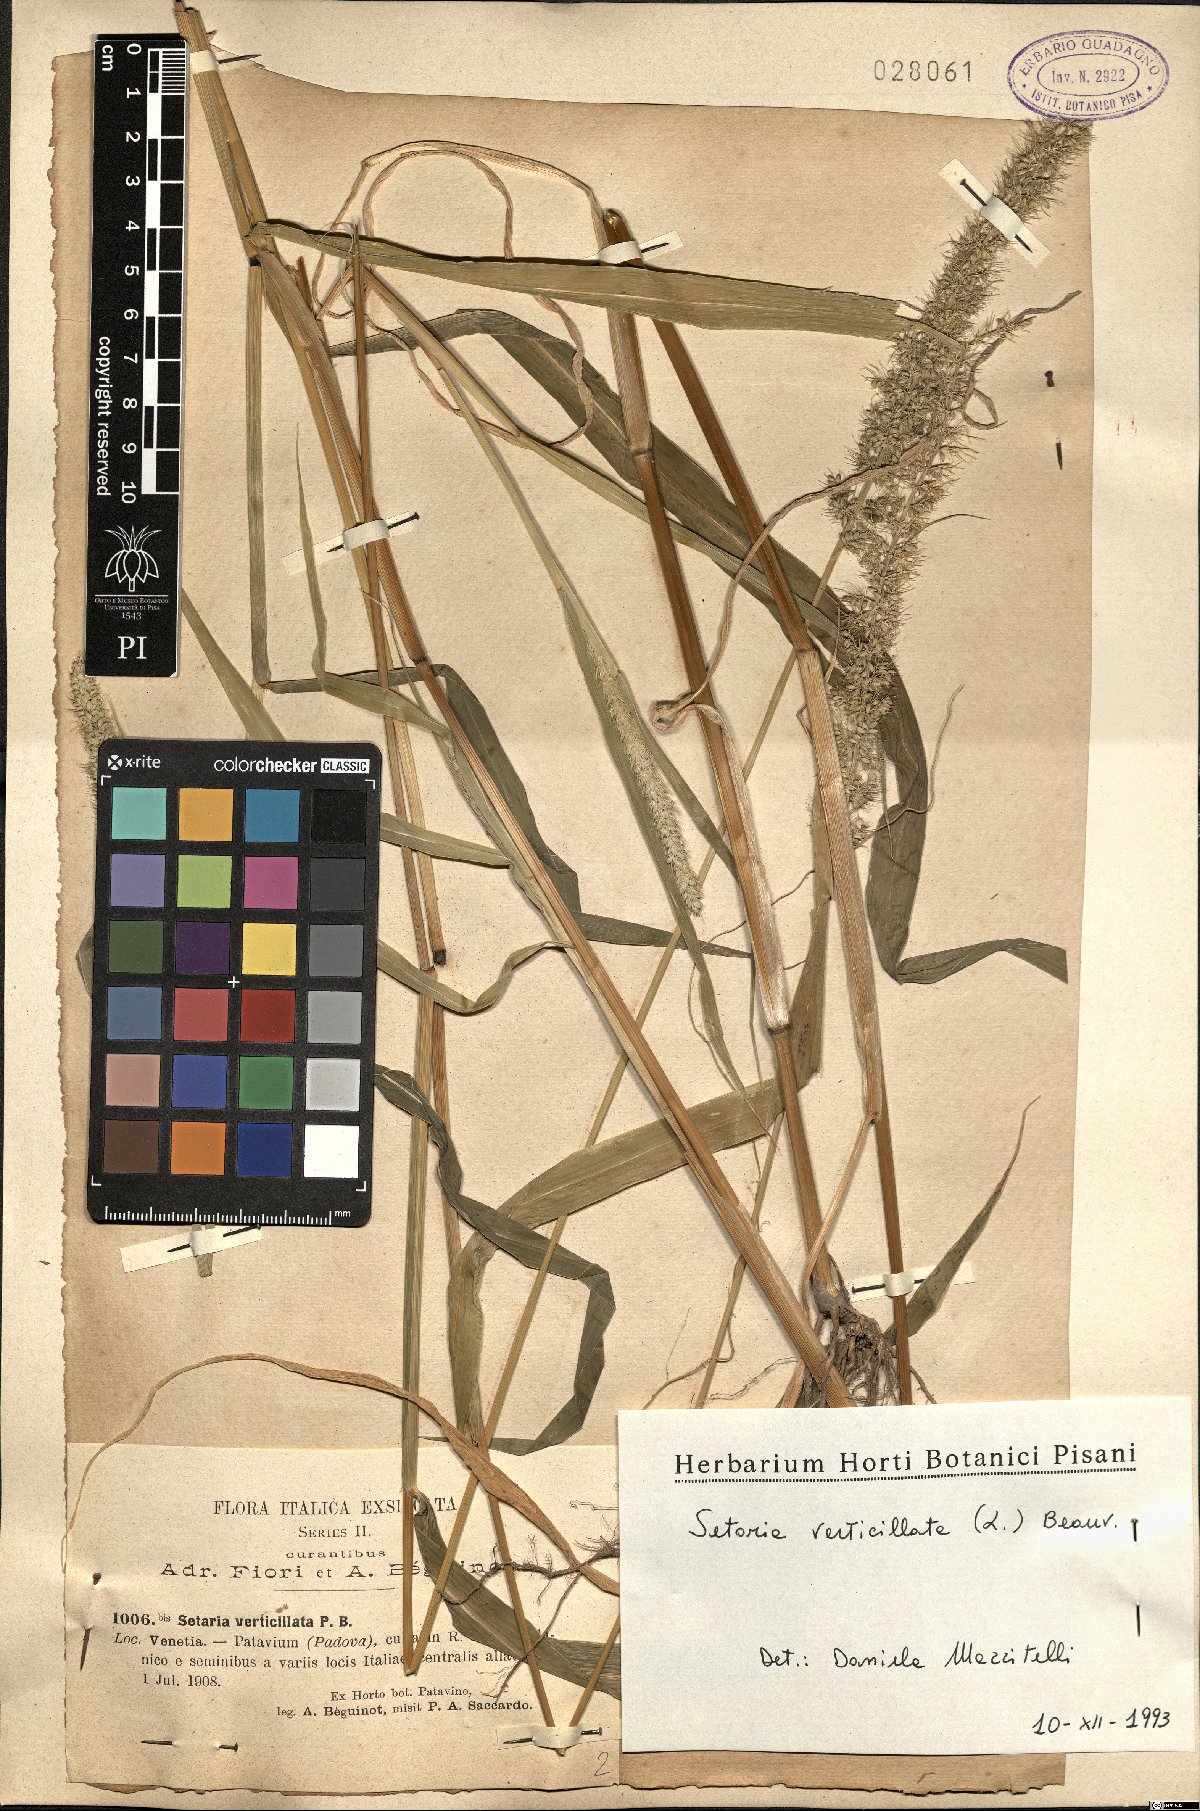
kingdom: Plantae
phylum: Tracheophyta
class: Liliopsida
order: Poales
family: Poaceae
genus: Setaria
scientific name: Setaria verticillata
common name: Hooked bristlegrass
